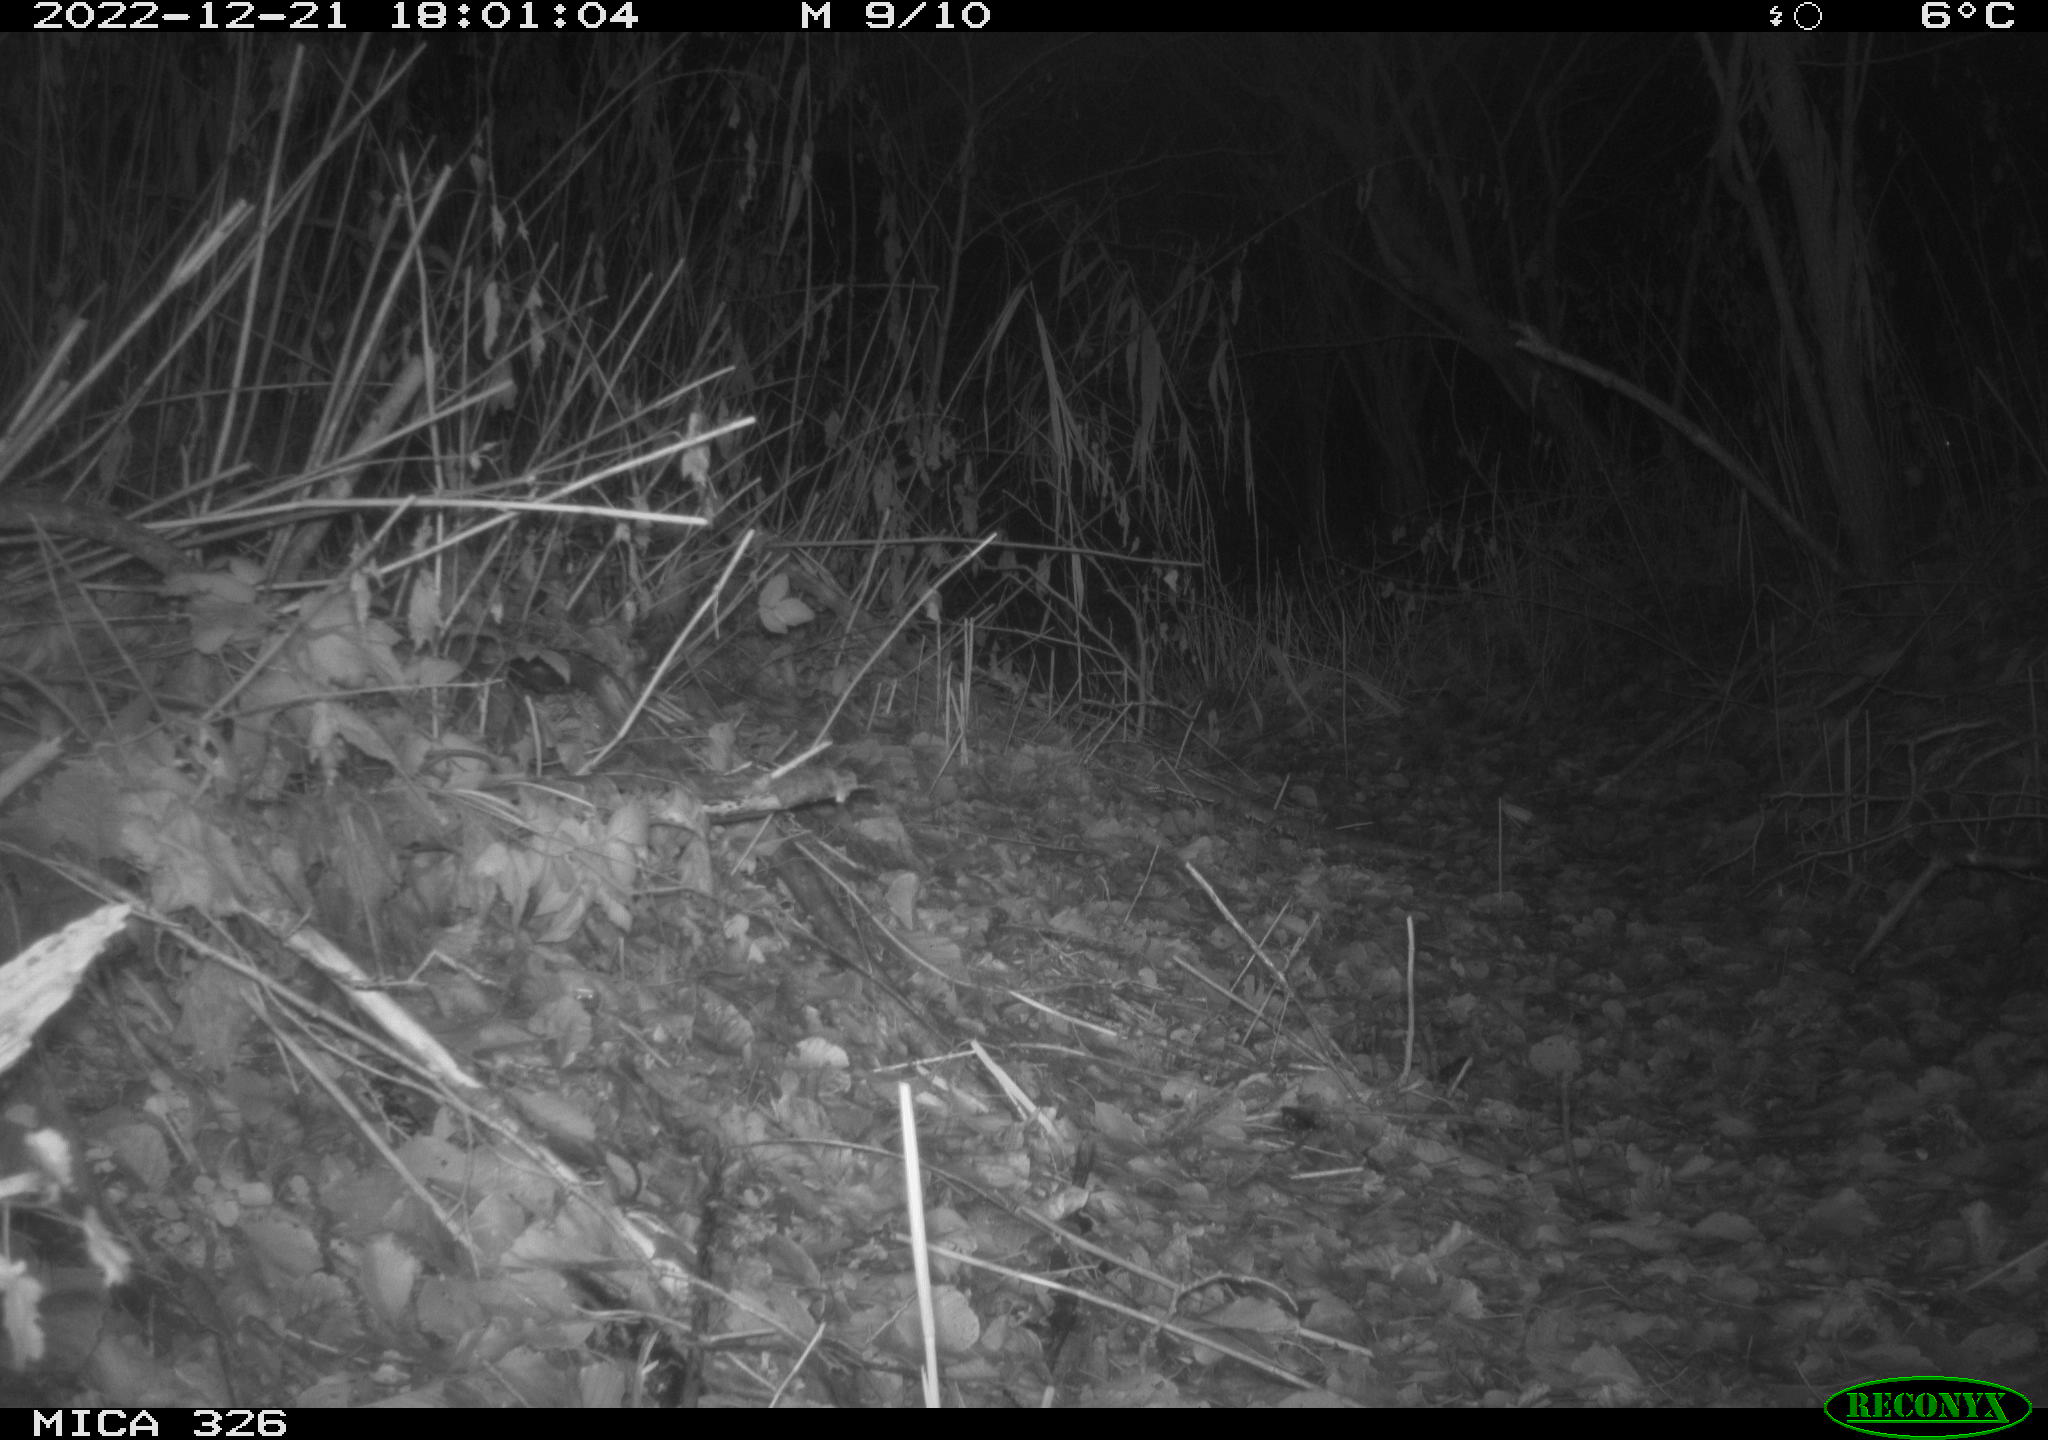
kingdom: Animalia
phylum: Chordata
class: Mammalia
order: Lagomorpha
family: Leporidae
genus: Lepus
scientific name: Lepus europaeus
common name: European hare
